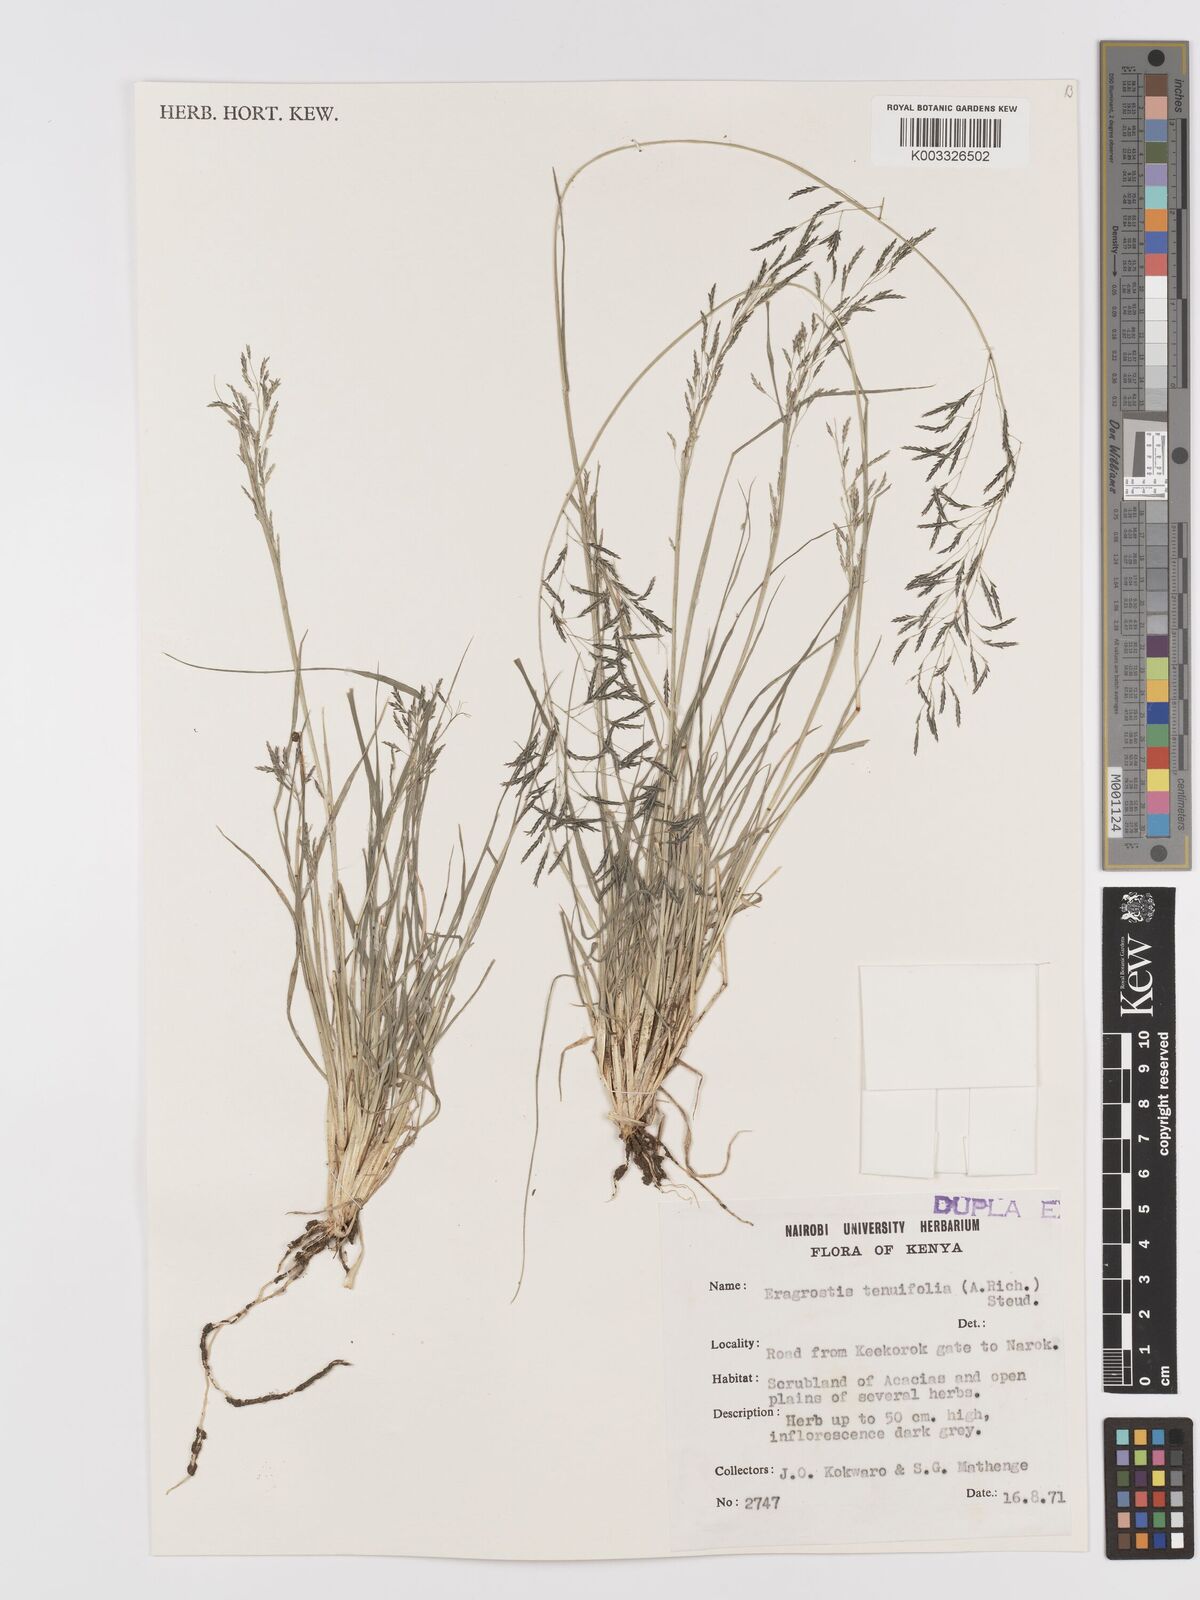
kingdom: Plantae
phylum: Tracheophyta
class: Liliopsida
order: Poales
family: Poaceae
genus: Eragrostis
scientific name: Eragrostis tenuifolia
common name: Elastic grass
